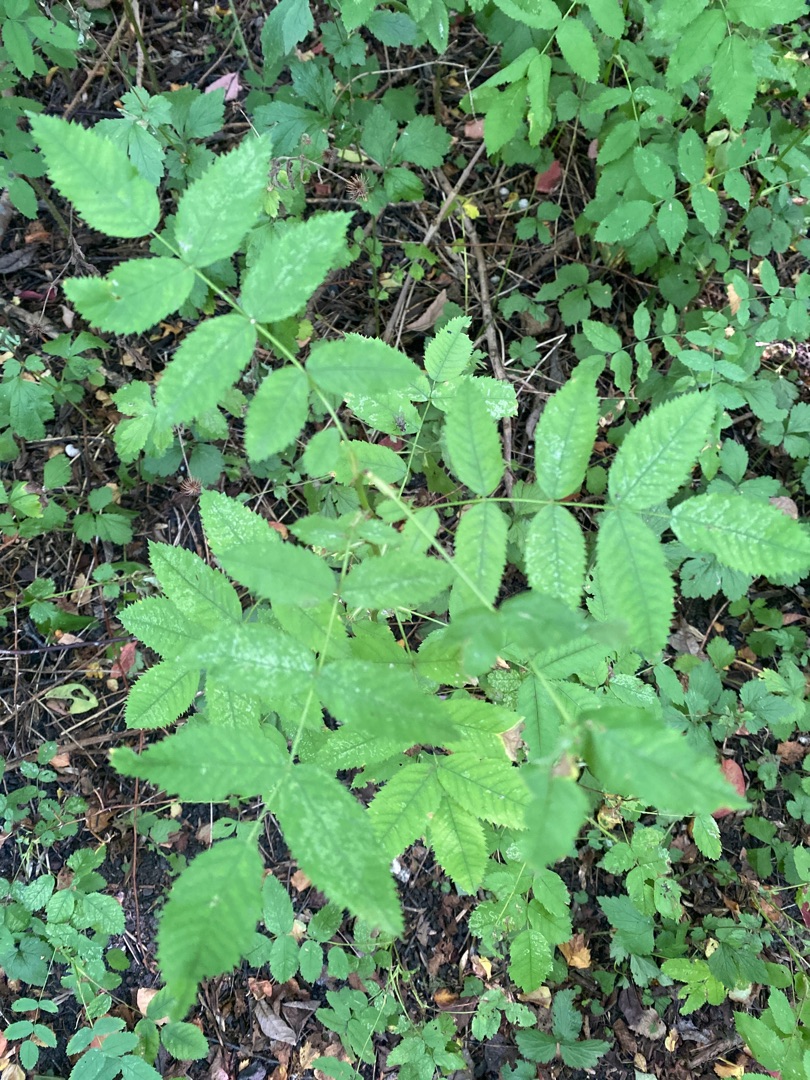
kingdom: Plantae
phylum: Tracheophyta
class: Magnoliopsida
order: Rosales
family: Rosaceae
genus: Rosa
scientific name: Rosa
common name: Roseslægten
